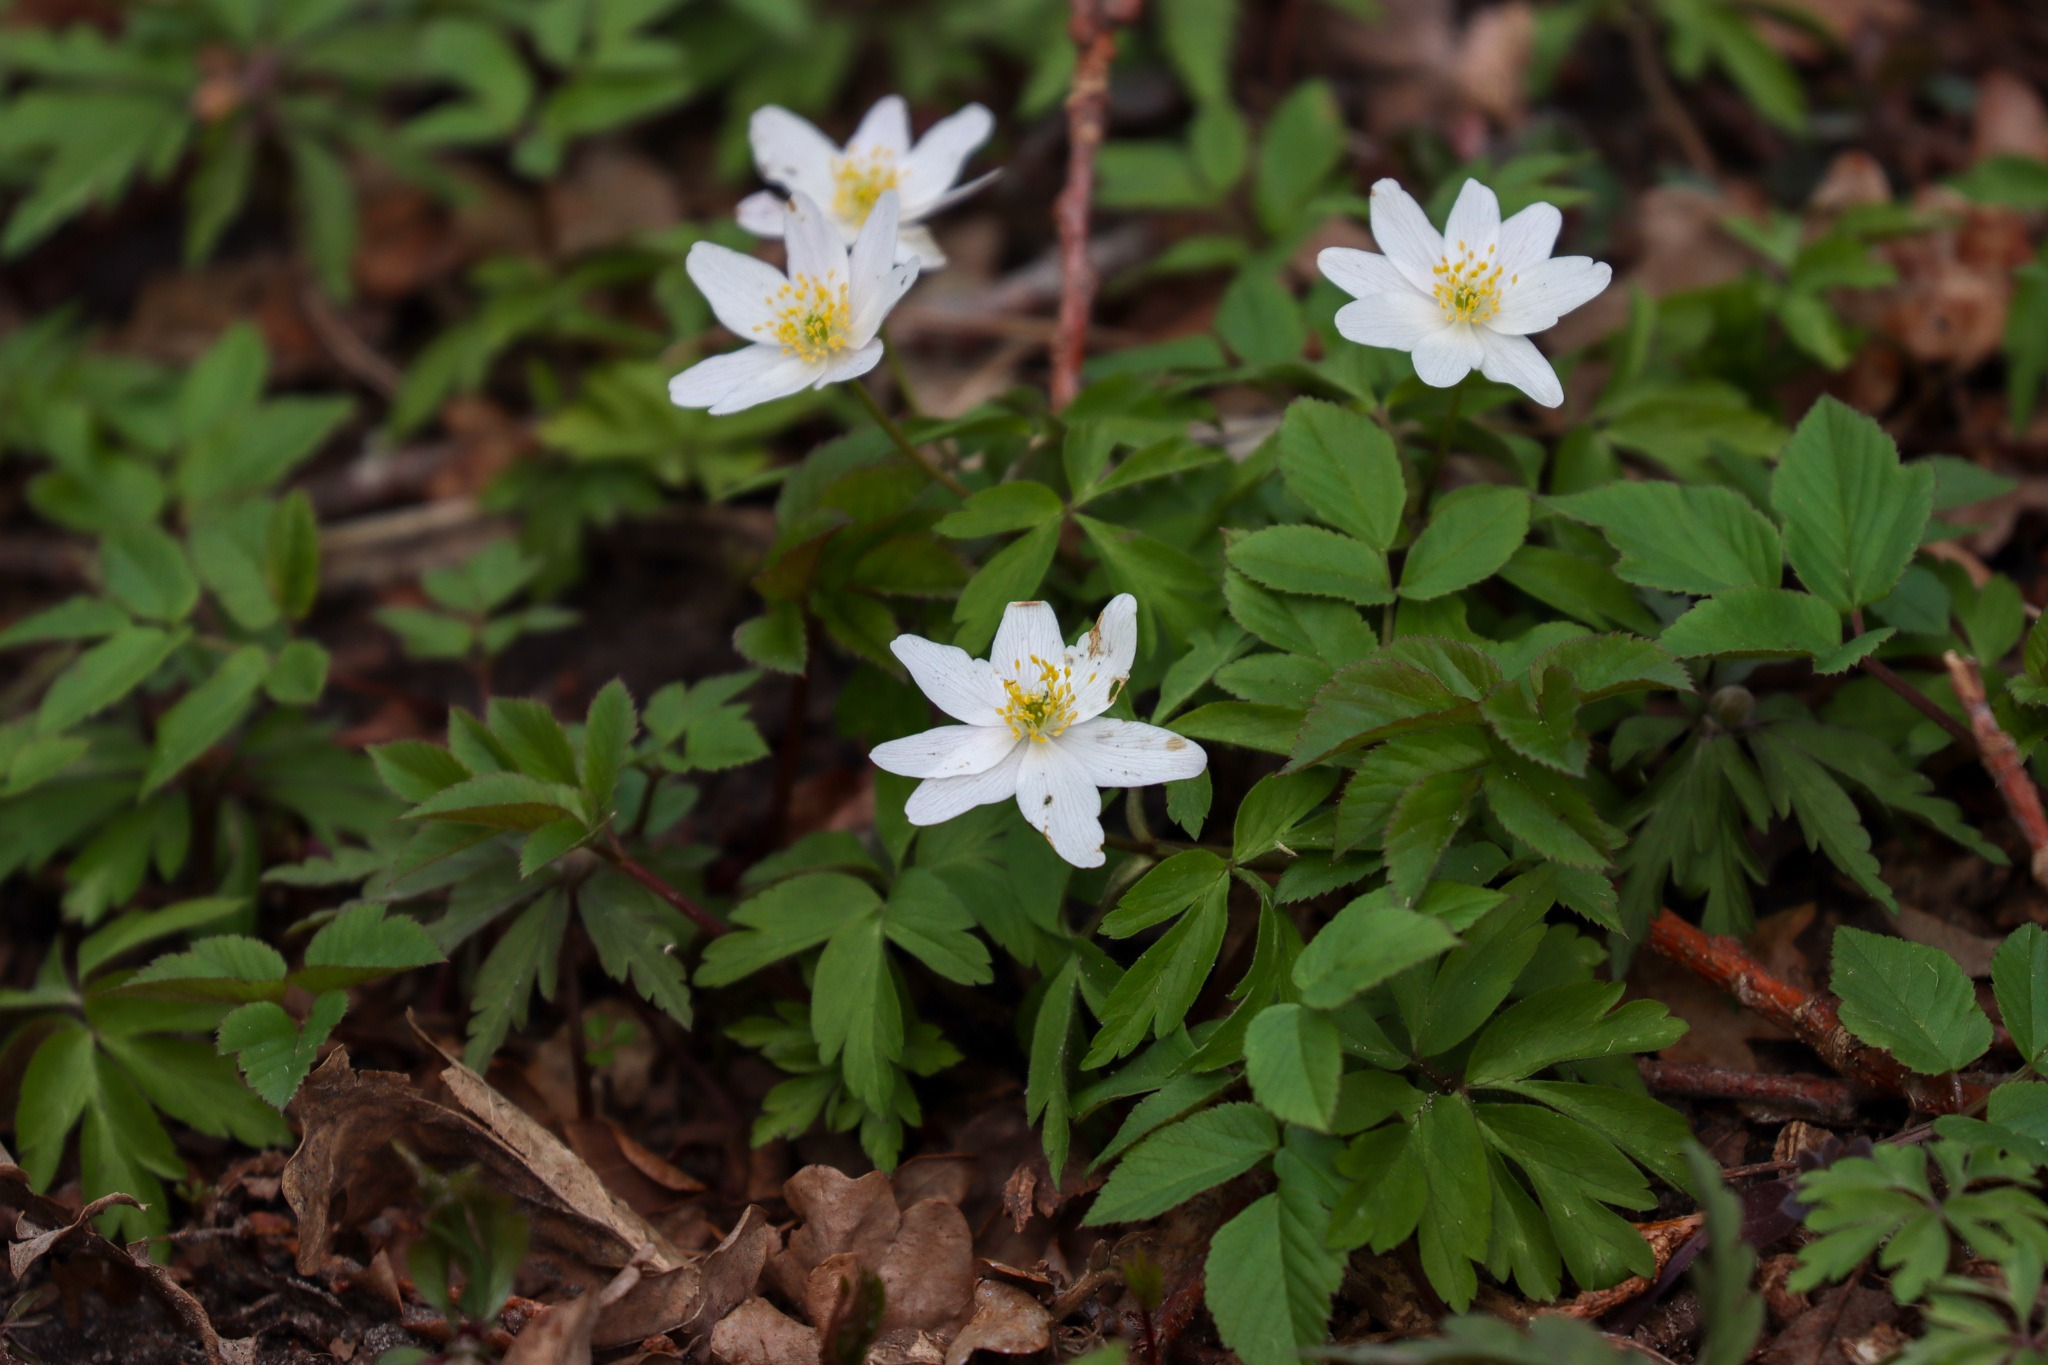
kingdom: Plantae
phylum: Tracheophyta
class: Magnoliopsida
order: Ranunculales
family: Ranunculaceae
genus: Anemone
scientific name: Anemone nemorosa
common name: Hvid anemone
